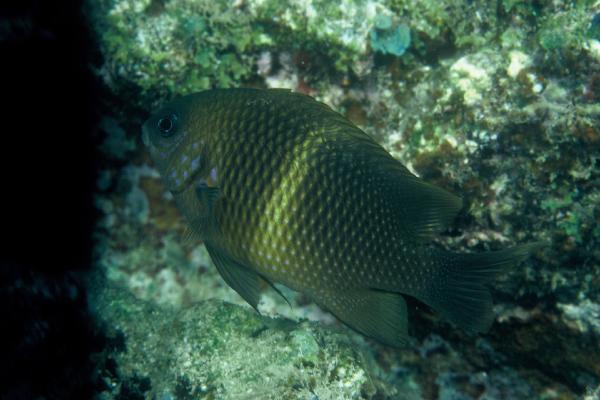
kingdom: Animalia
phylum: Chordata
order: Perciformes
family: Pomacentridae
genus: Plectroglyphidodon
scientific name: Plectroglyphidodon leucozonus
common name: White-band damsel
